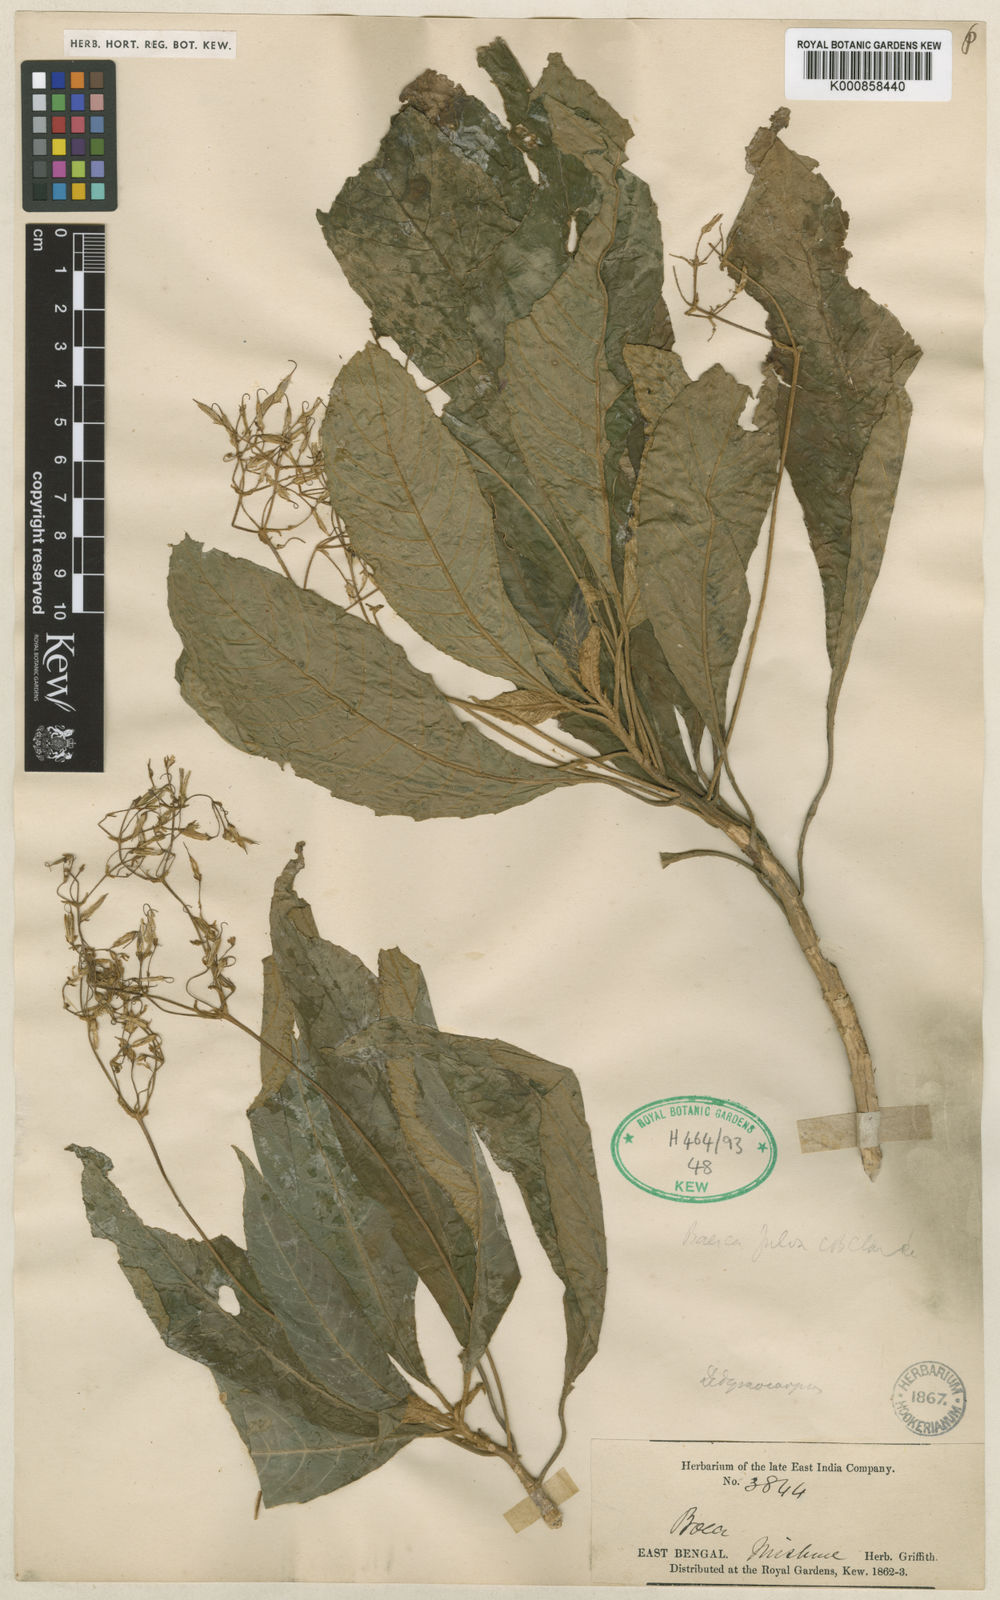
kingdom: Plantae
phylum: Tracheophyta
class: Magnoliopsida
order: Lamiales
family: Gesneriaceae
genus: Boeica
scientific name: Boeica fulva
